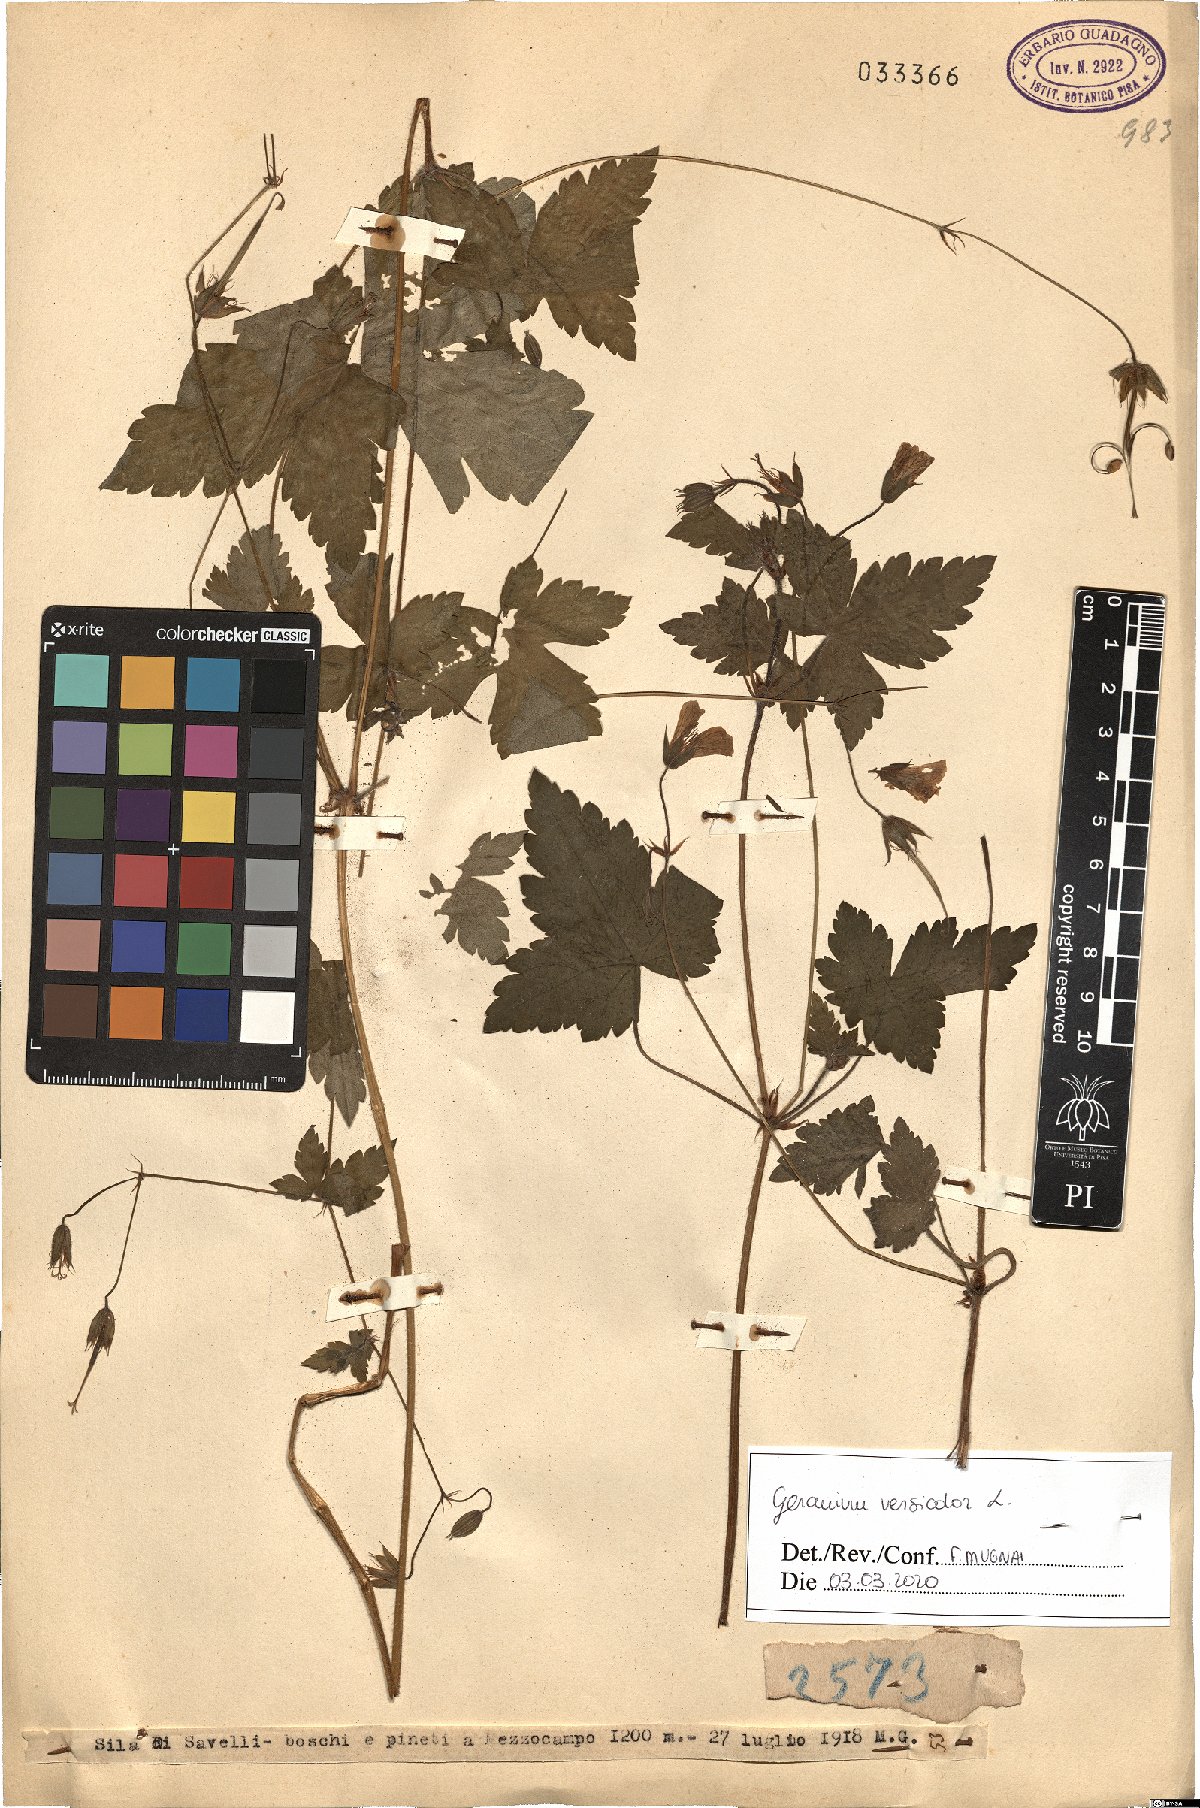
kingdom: Plantae
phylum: Tracheophyta
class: Magnoliopsida
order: Geraniales
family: Geraniaceae
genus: Geranium
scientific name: Geranium versicolor
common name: Pencilled crane's-bill
